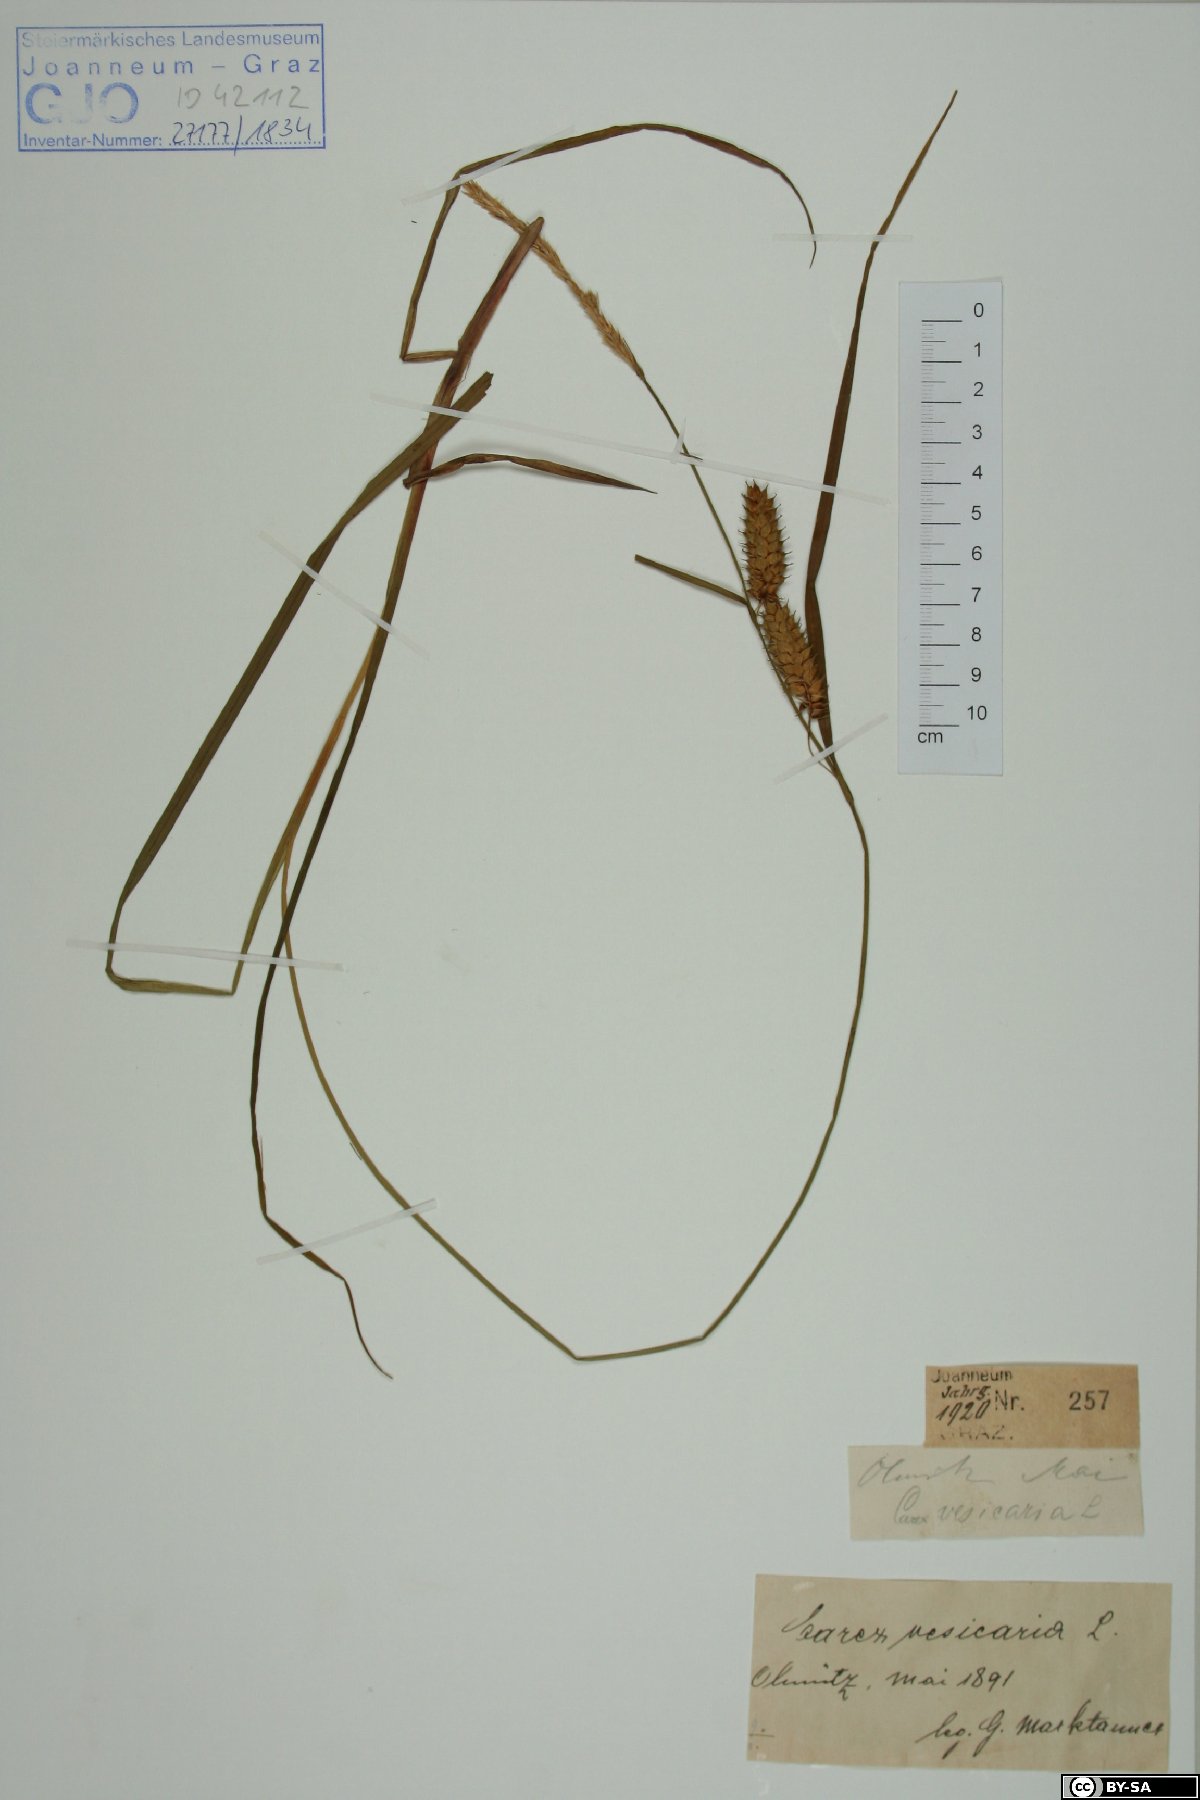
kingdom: Plantae
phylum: Tracheophyta
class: Liliopsida
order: Poales
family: Cyperaceae
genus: Carex
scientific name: Carex vesicaria
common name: Bladder-sedge
